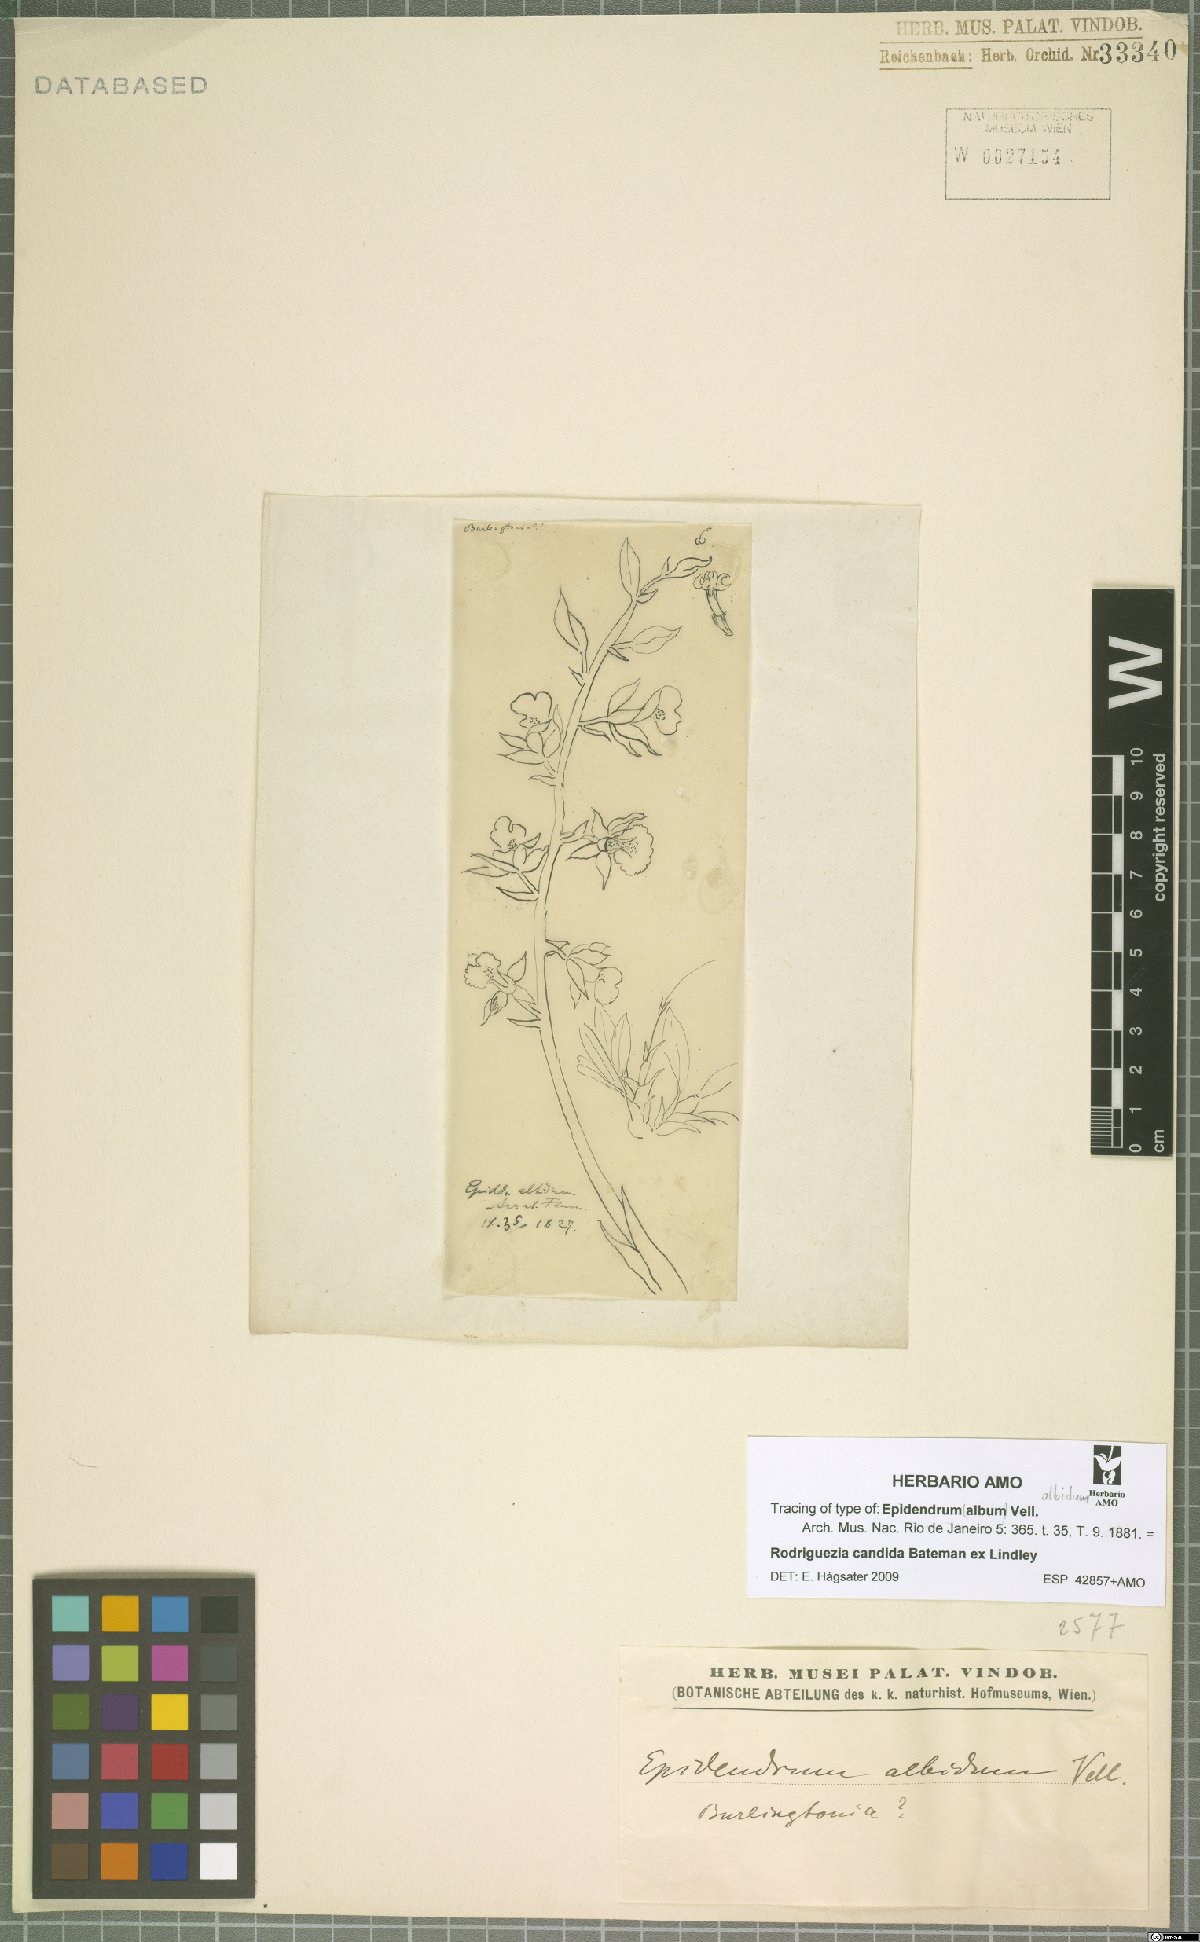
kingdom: Plantae
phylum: Tracheophyta
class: Liliopsida
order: Asparagales
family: Orchidaceae
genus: Rodriguezia
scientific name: Rodriguezia candida
